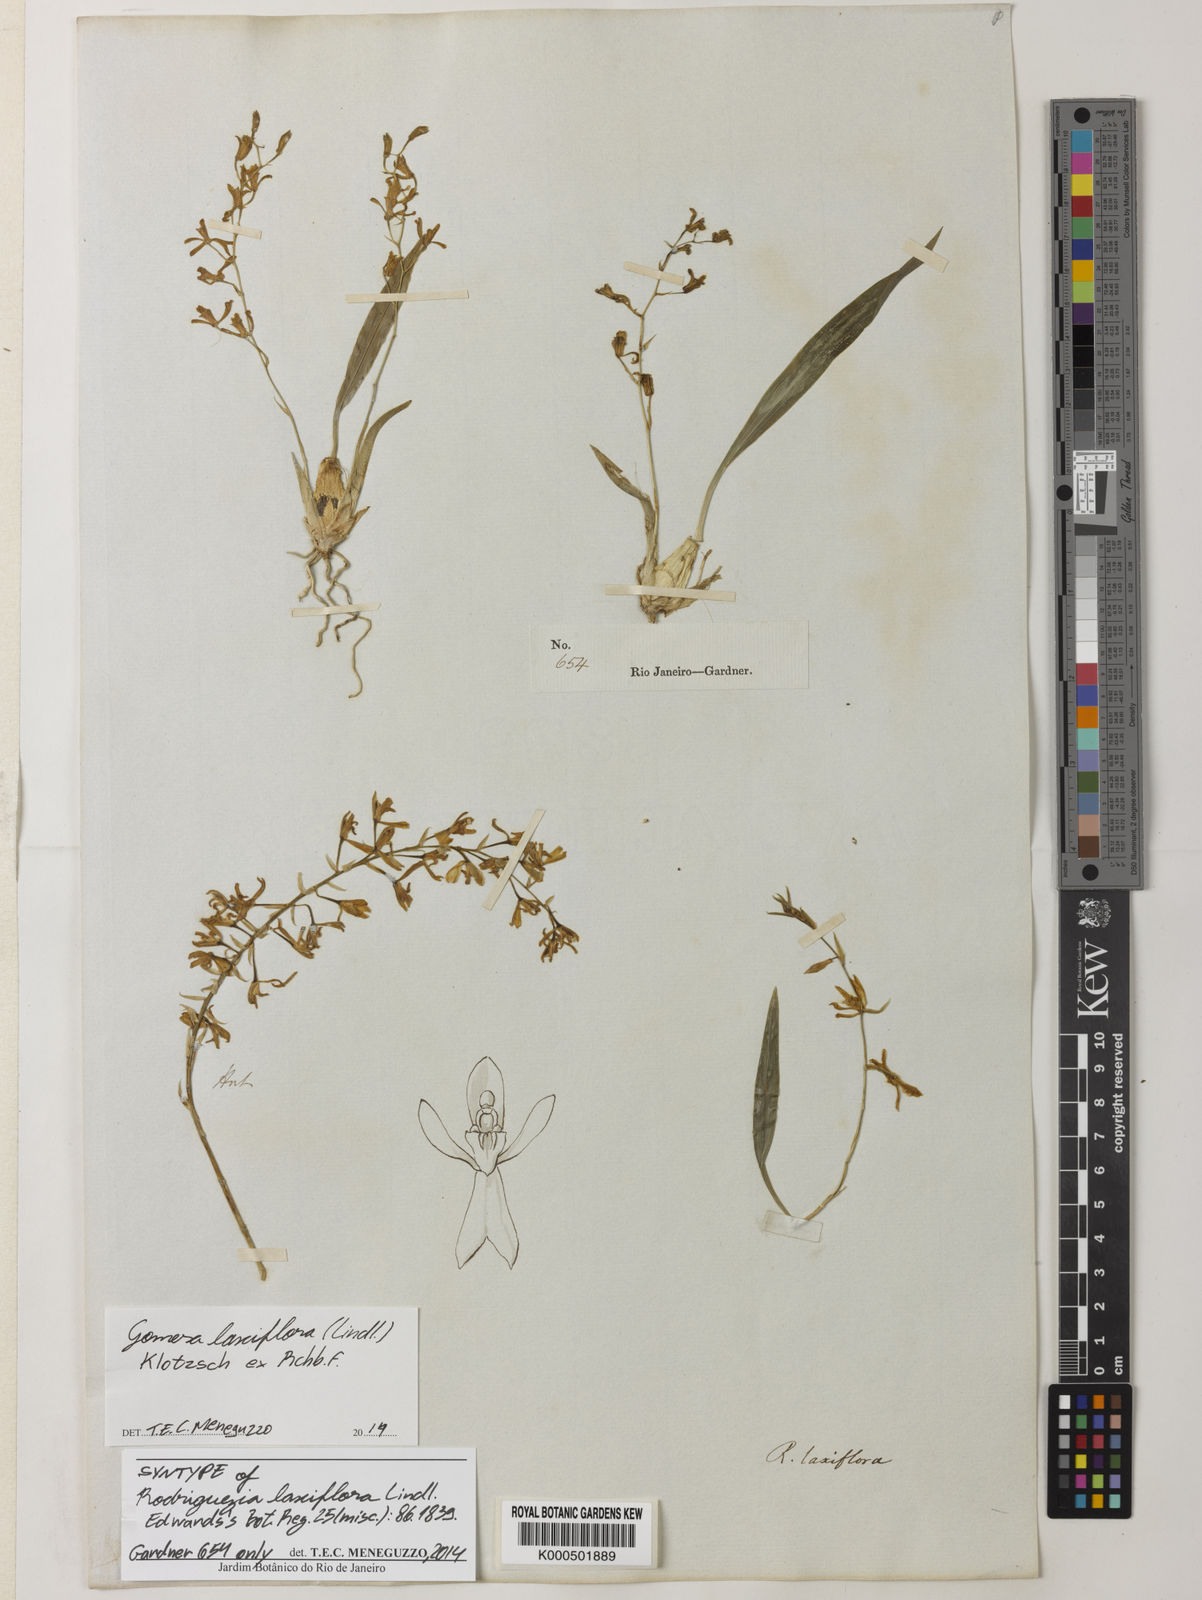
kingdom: Plantae
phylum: Tracheophyta
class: Liliopsida
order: Asparagales
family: Orchidaceae
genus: Gomesa
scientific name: Gomesa laxiflora
